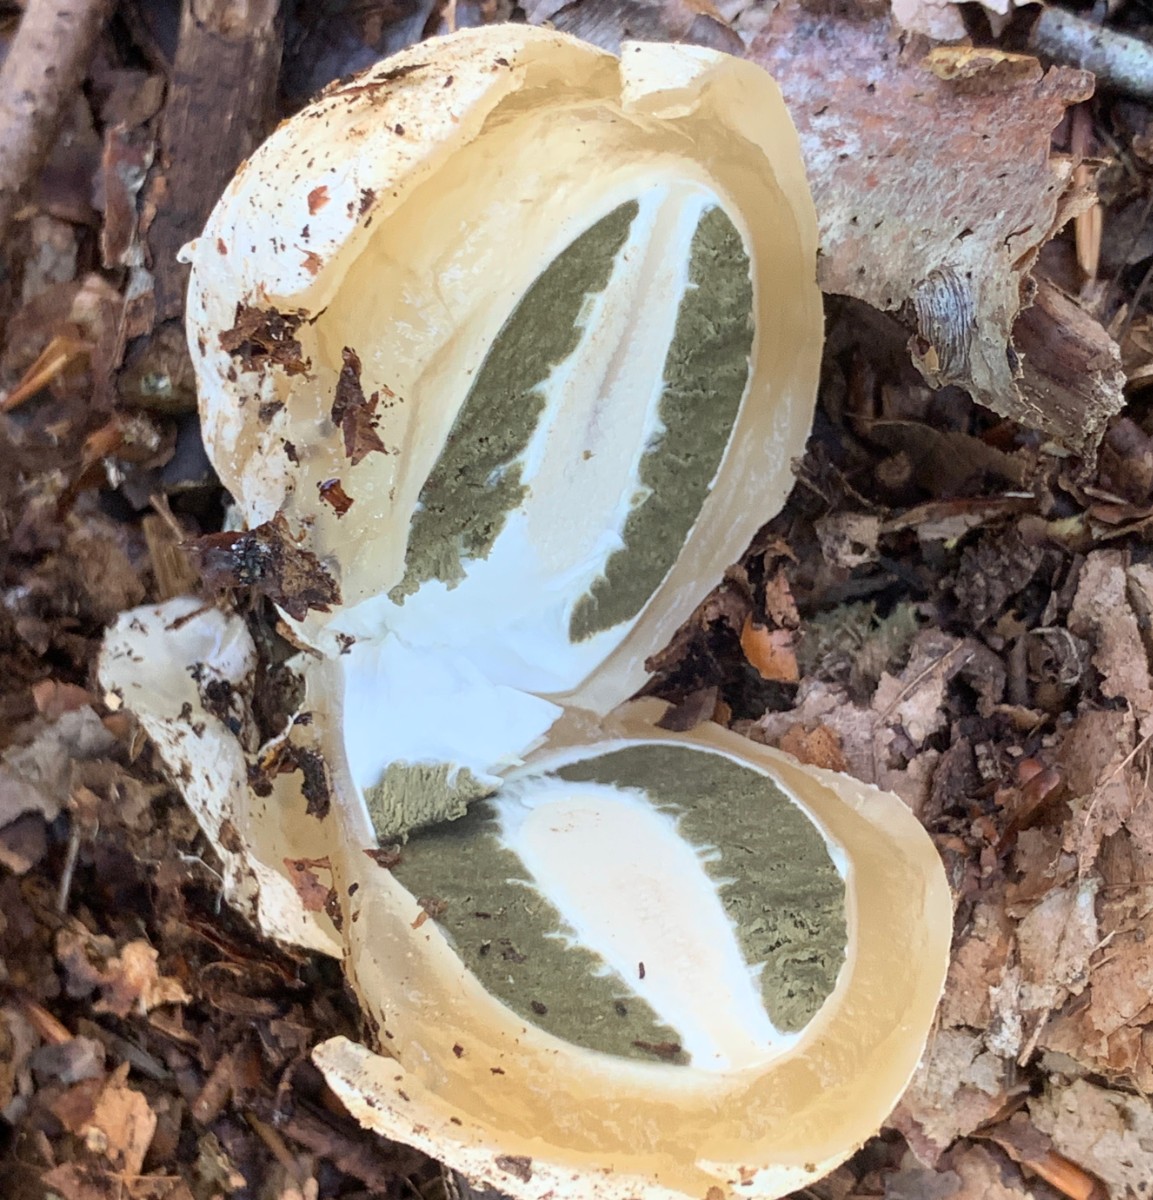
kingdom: Fungi
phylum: Basidiomycota
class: Agaricomycetes
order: Phallales
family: Phallaceae
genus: Phallus
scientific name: Phallus impudicus
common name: almindelig stinksvamp
